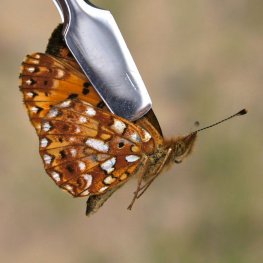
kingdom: Animalia
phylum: Arthropoda
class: Insecta
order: Lepidoptera
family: Nymphalidae
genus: Boloria
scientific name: Boloria selene
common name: Silver-bordered Fritillary
